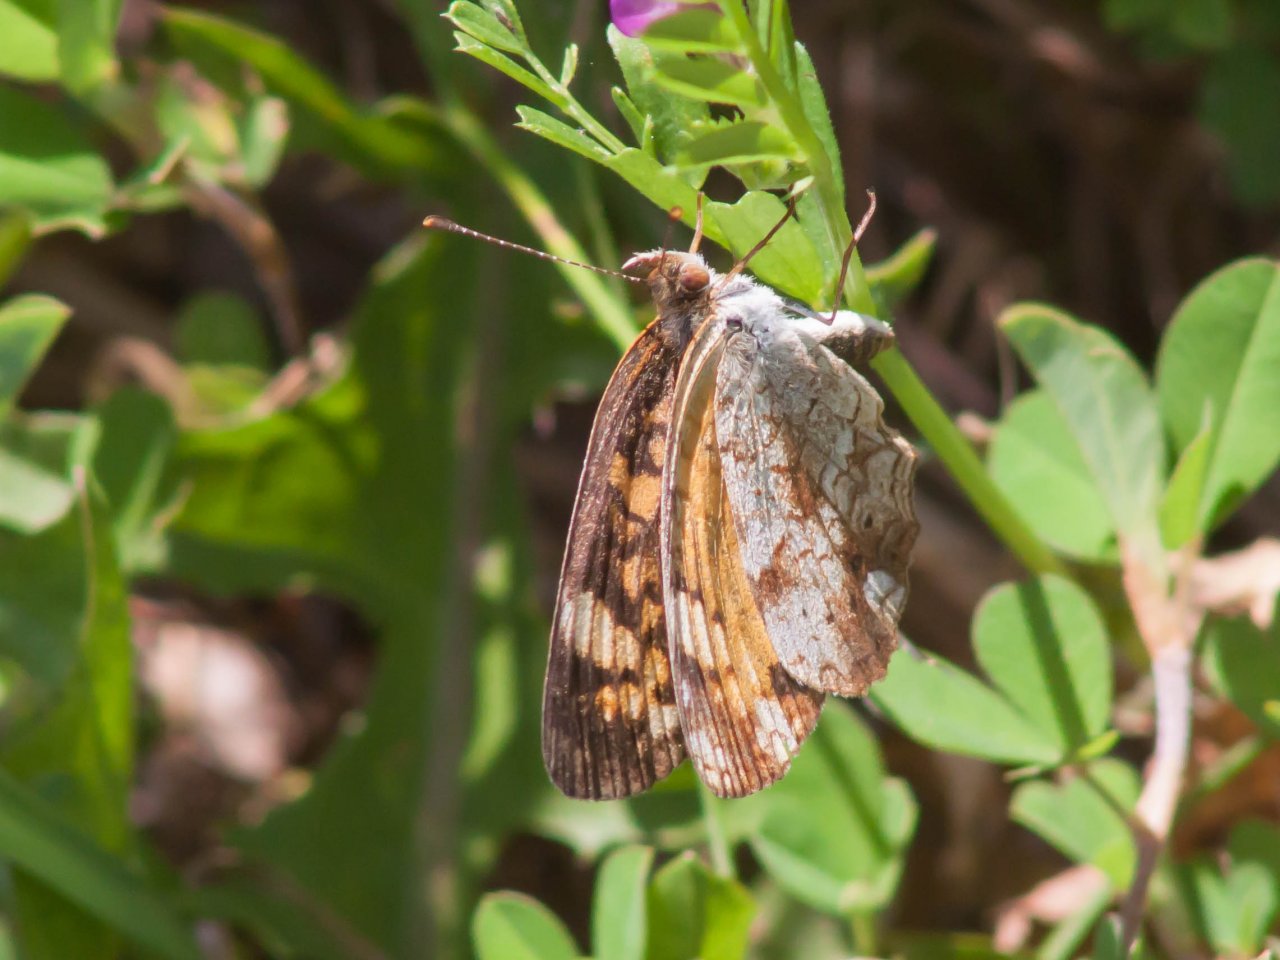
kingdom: Animalia
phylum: Arthropoda
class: Insecta
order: Lepidoptera
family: Nymphalidae
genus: Phyciodes
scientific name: Phyciodes tharos
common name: Pearl Crescent
